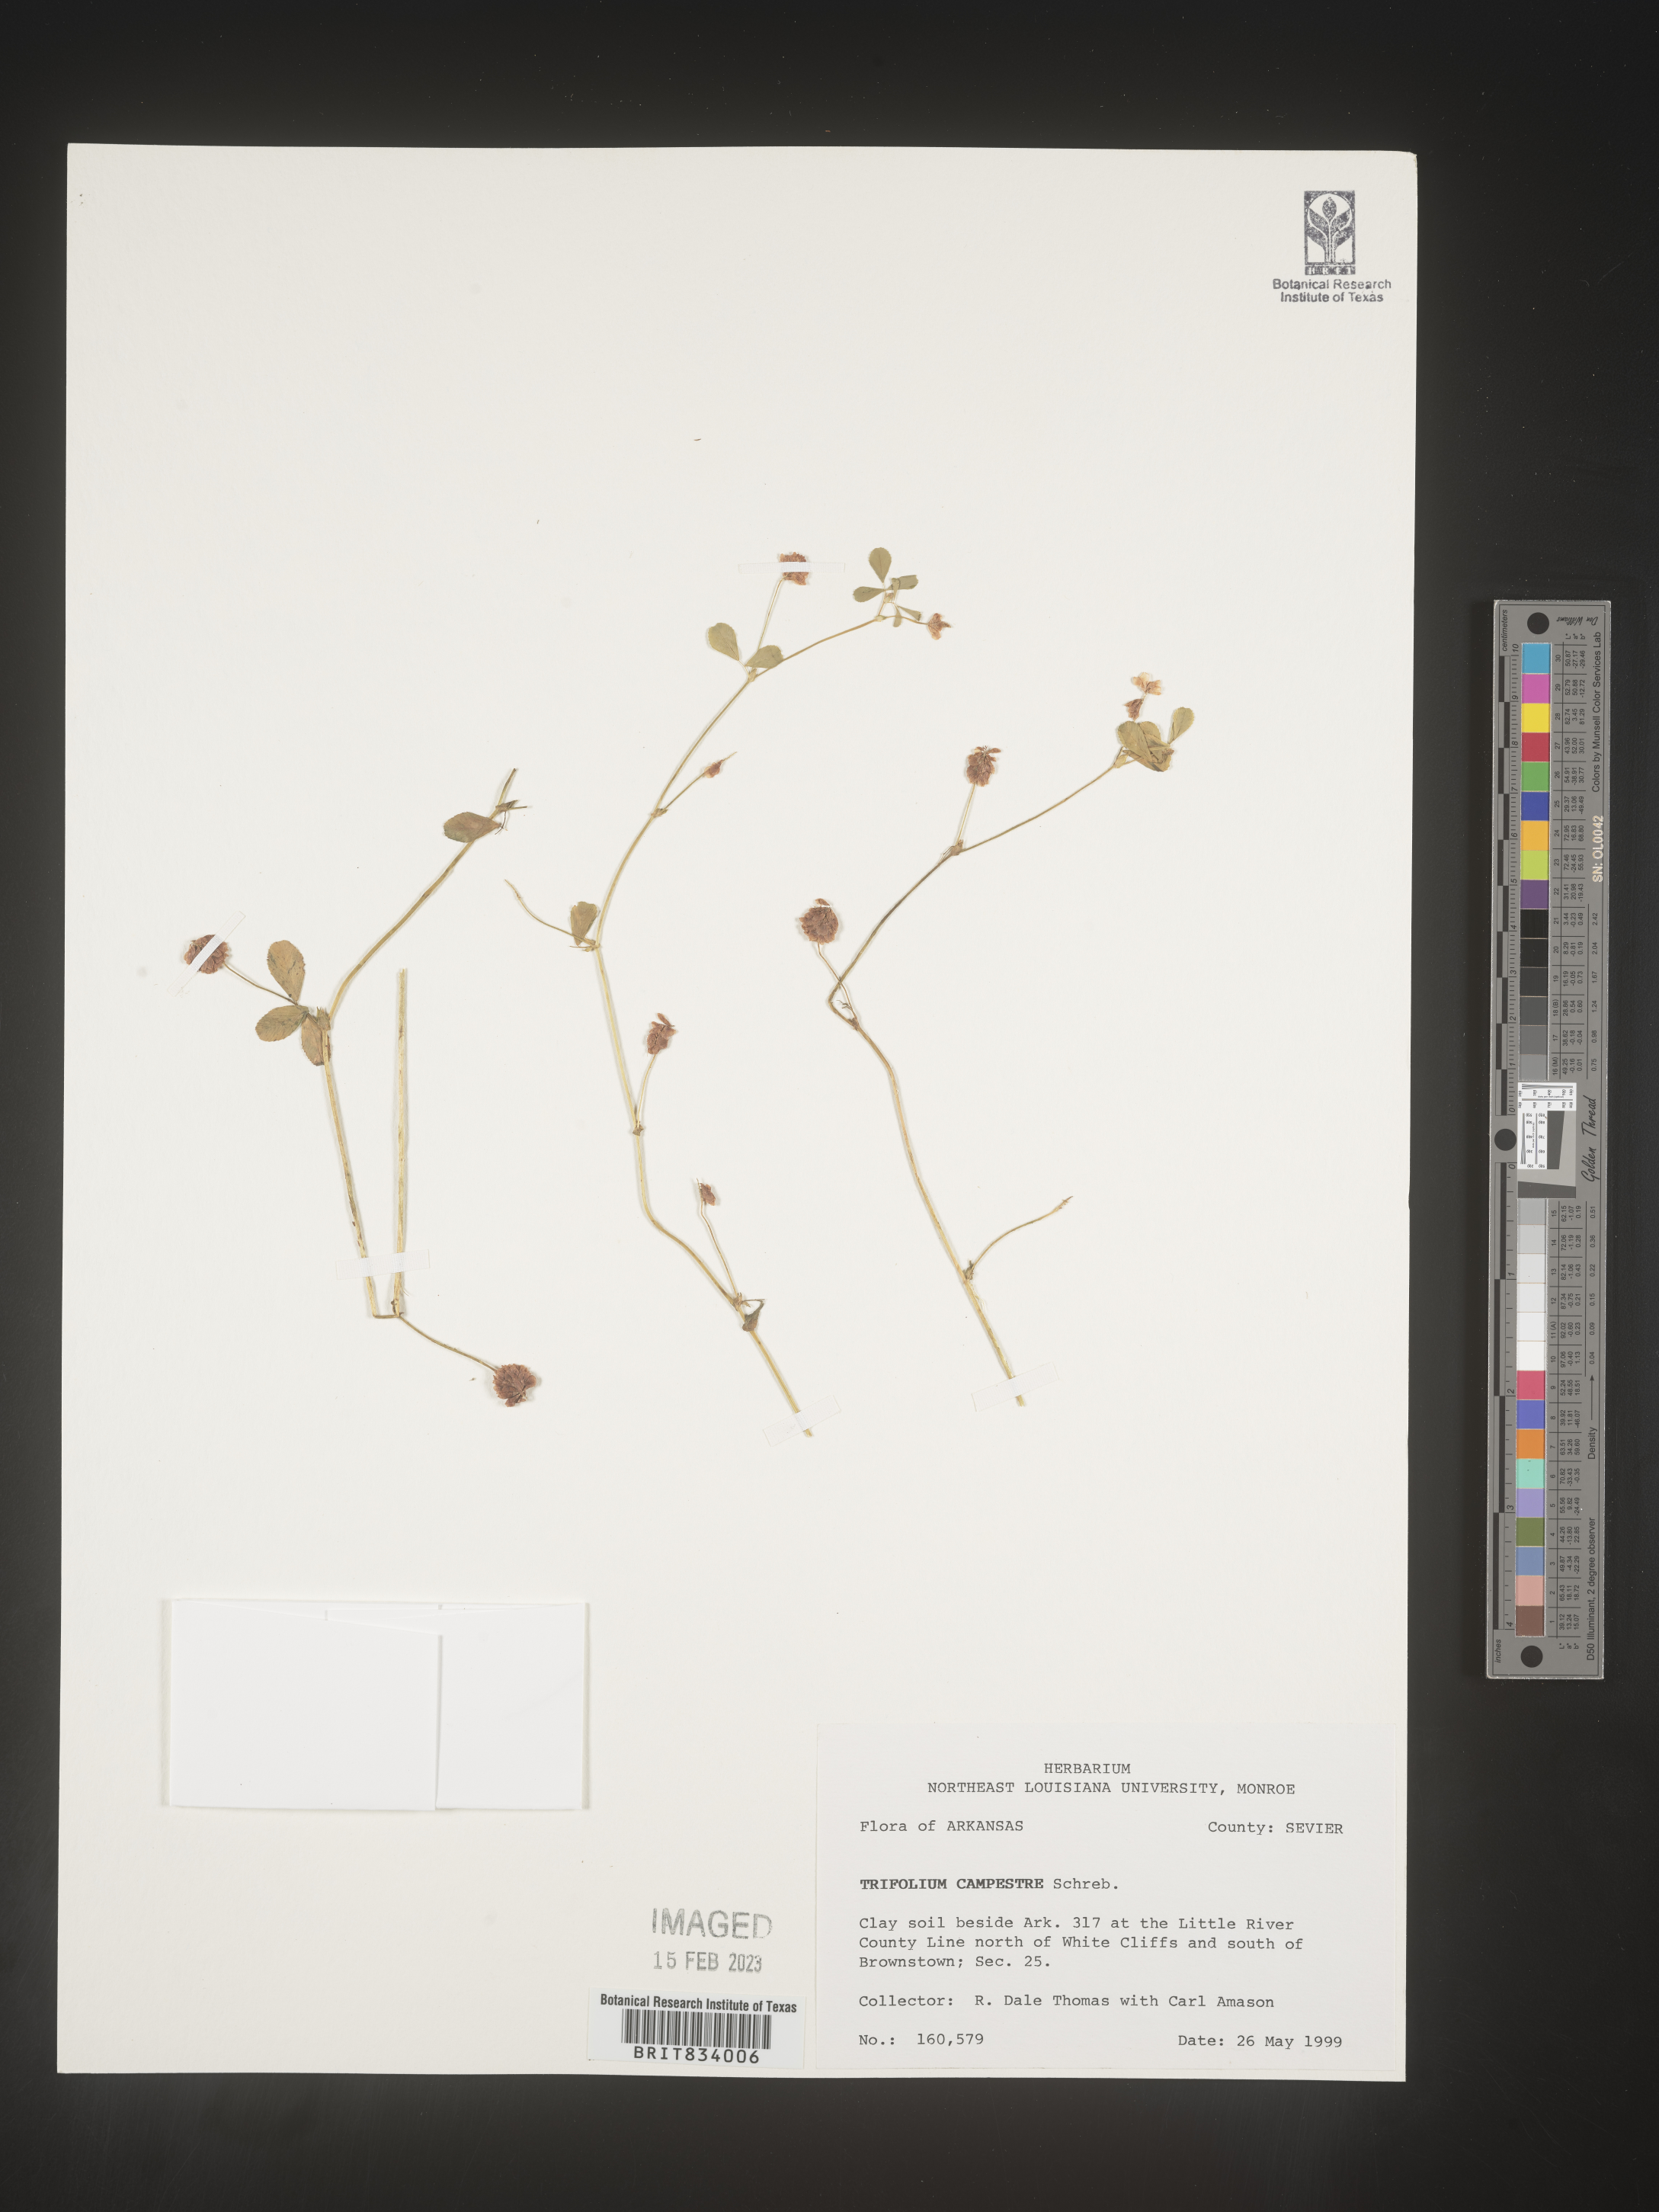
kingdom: Plantae
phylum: Tracheophyta
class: Magnoliopsida
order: Fabales
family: Fabaceae
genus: Trifolium
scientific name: Trifolium campestre
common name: Field clover
